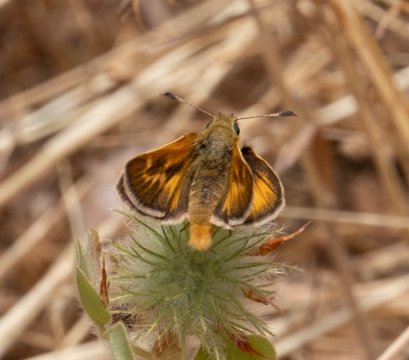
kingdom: Animalia
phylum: Arthropoda
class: Insecta
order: Lepidoptera
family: Hesperiidae
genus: Ochlodes
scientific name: Ochlodes sylvanoides
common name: Woodland Skipper
